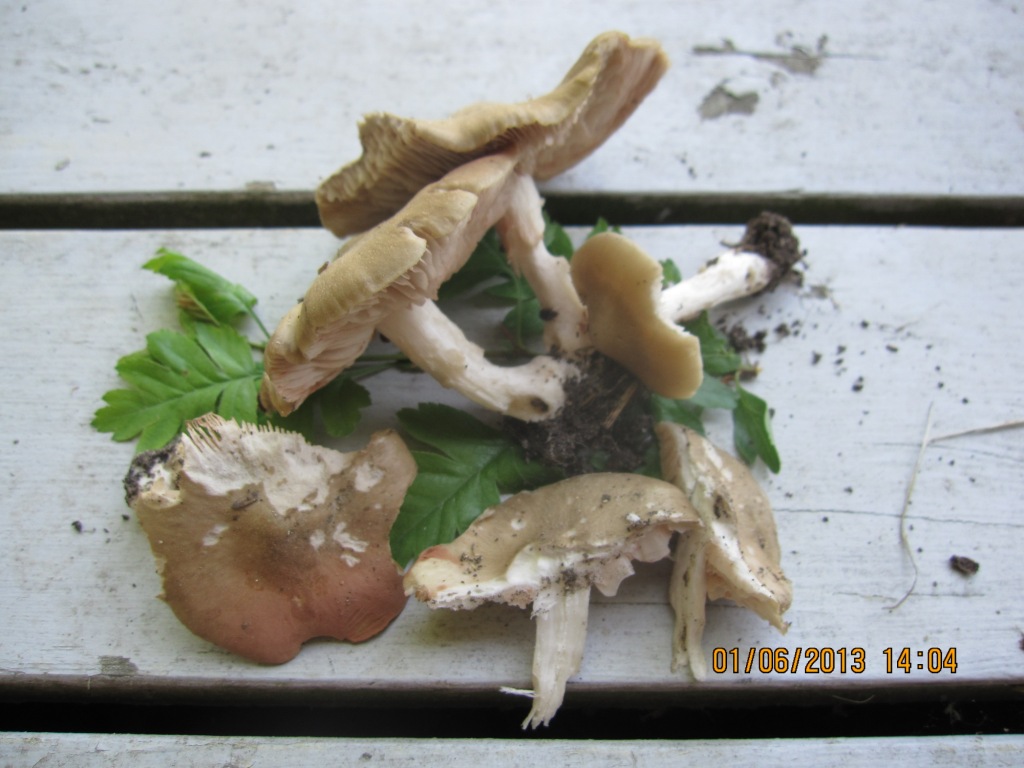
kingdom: Fungi
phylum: Basidiomycota
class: Agaricomycetes
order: Agaricales
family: Entolomataceae
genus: Entoloma
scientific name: Entoloma clypeatum
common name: flammet rødblad
